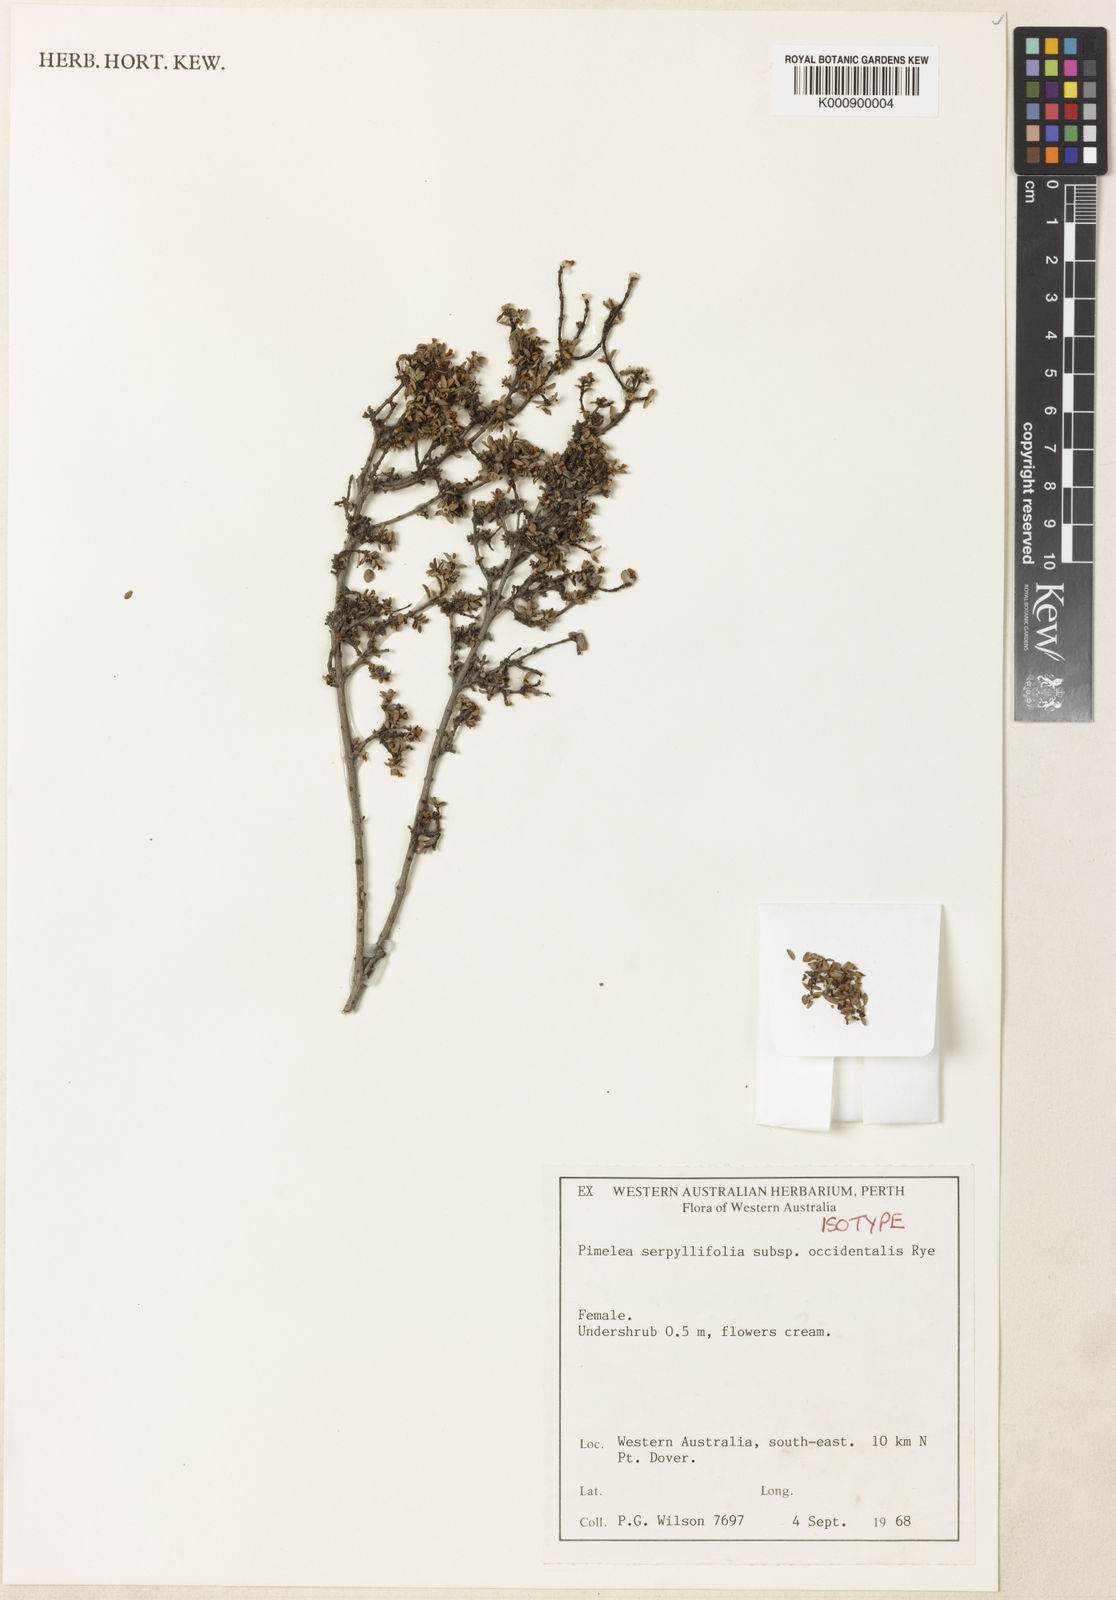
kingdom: Plantae
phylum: Tracheophyta
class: Magnoliopsida
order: Malvales
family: Thymelaeaceae
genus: Pimelea
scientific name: Pimelea serpyllifolia
